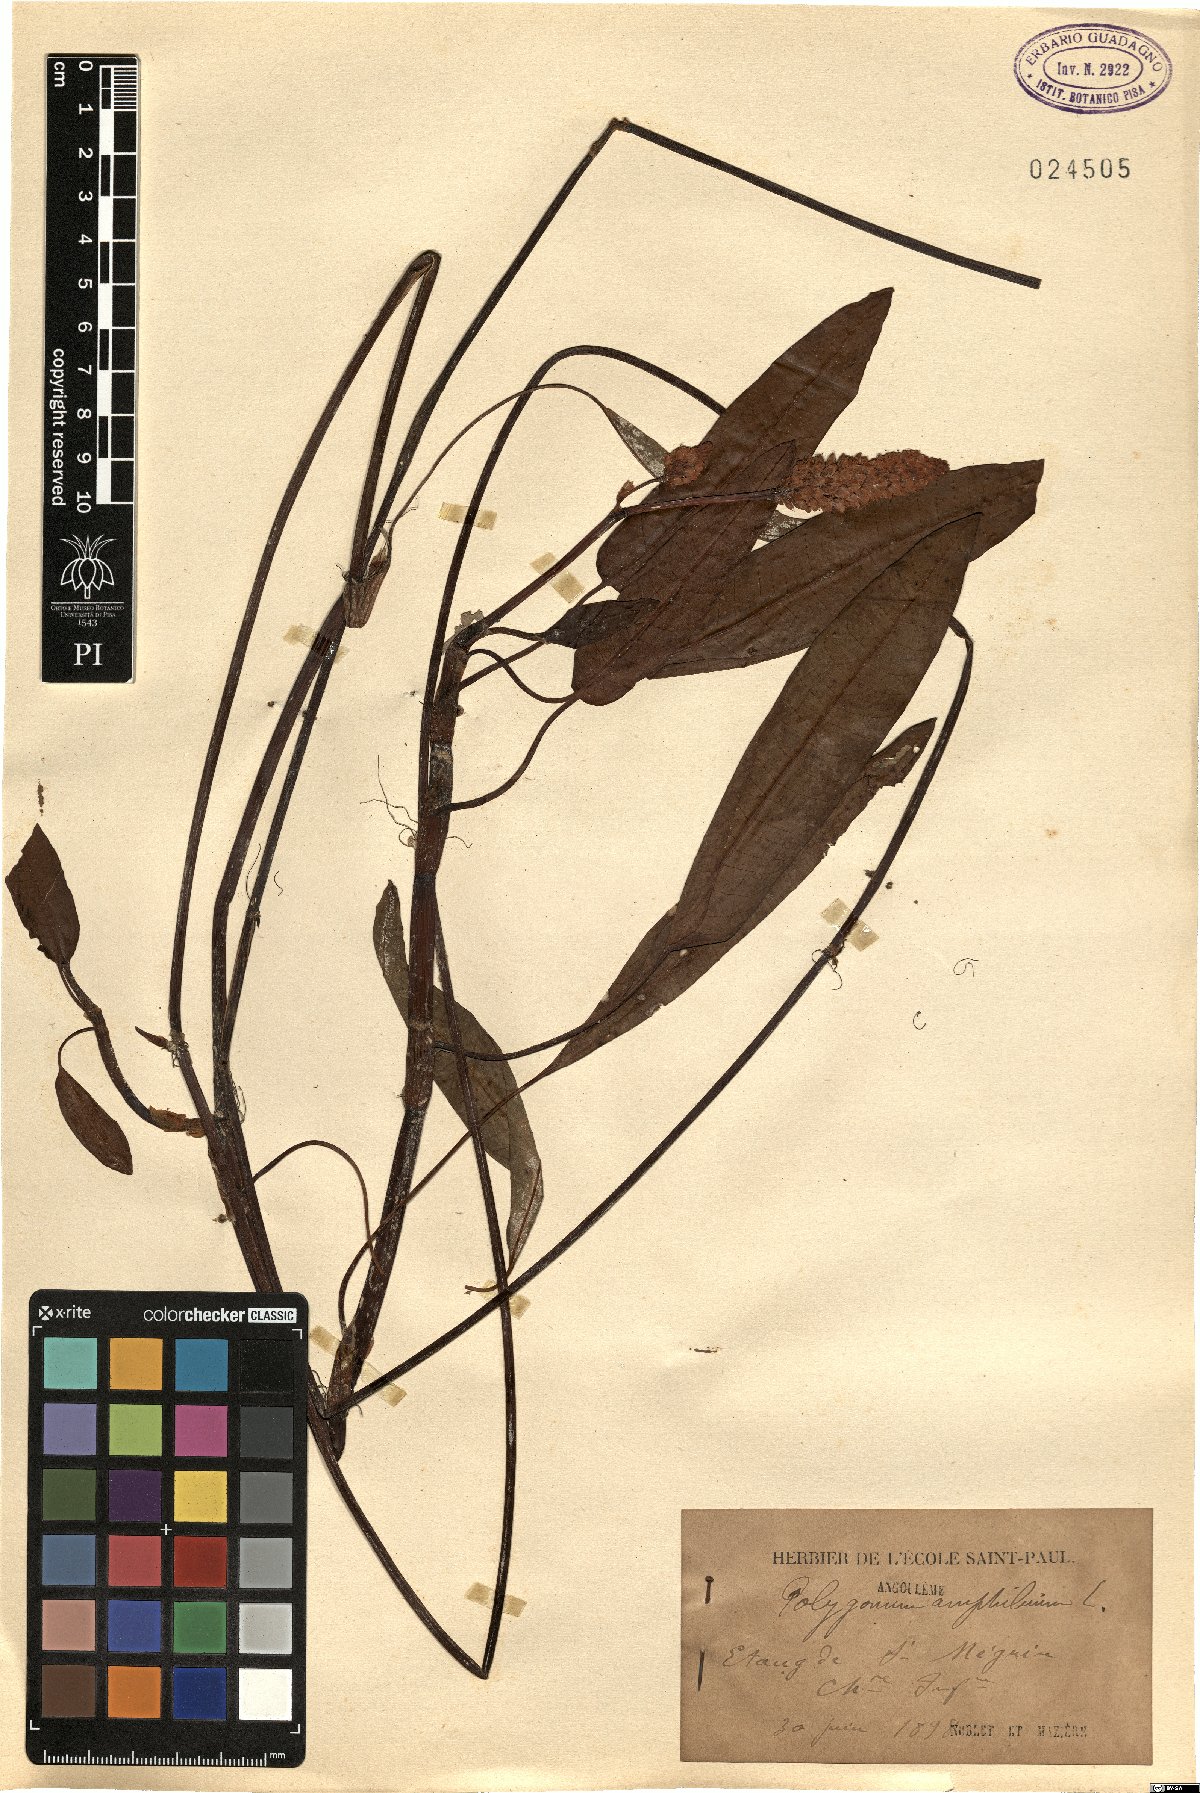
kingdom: Plantae
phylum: Tracheophyta
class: Magnoliopsida
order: Caryophyllales
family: Polygonaceae
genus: Persicaria
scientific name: Persicaria amphibia
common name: Amphibious bistort
